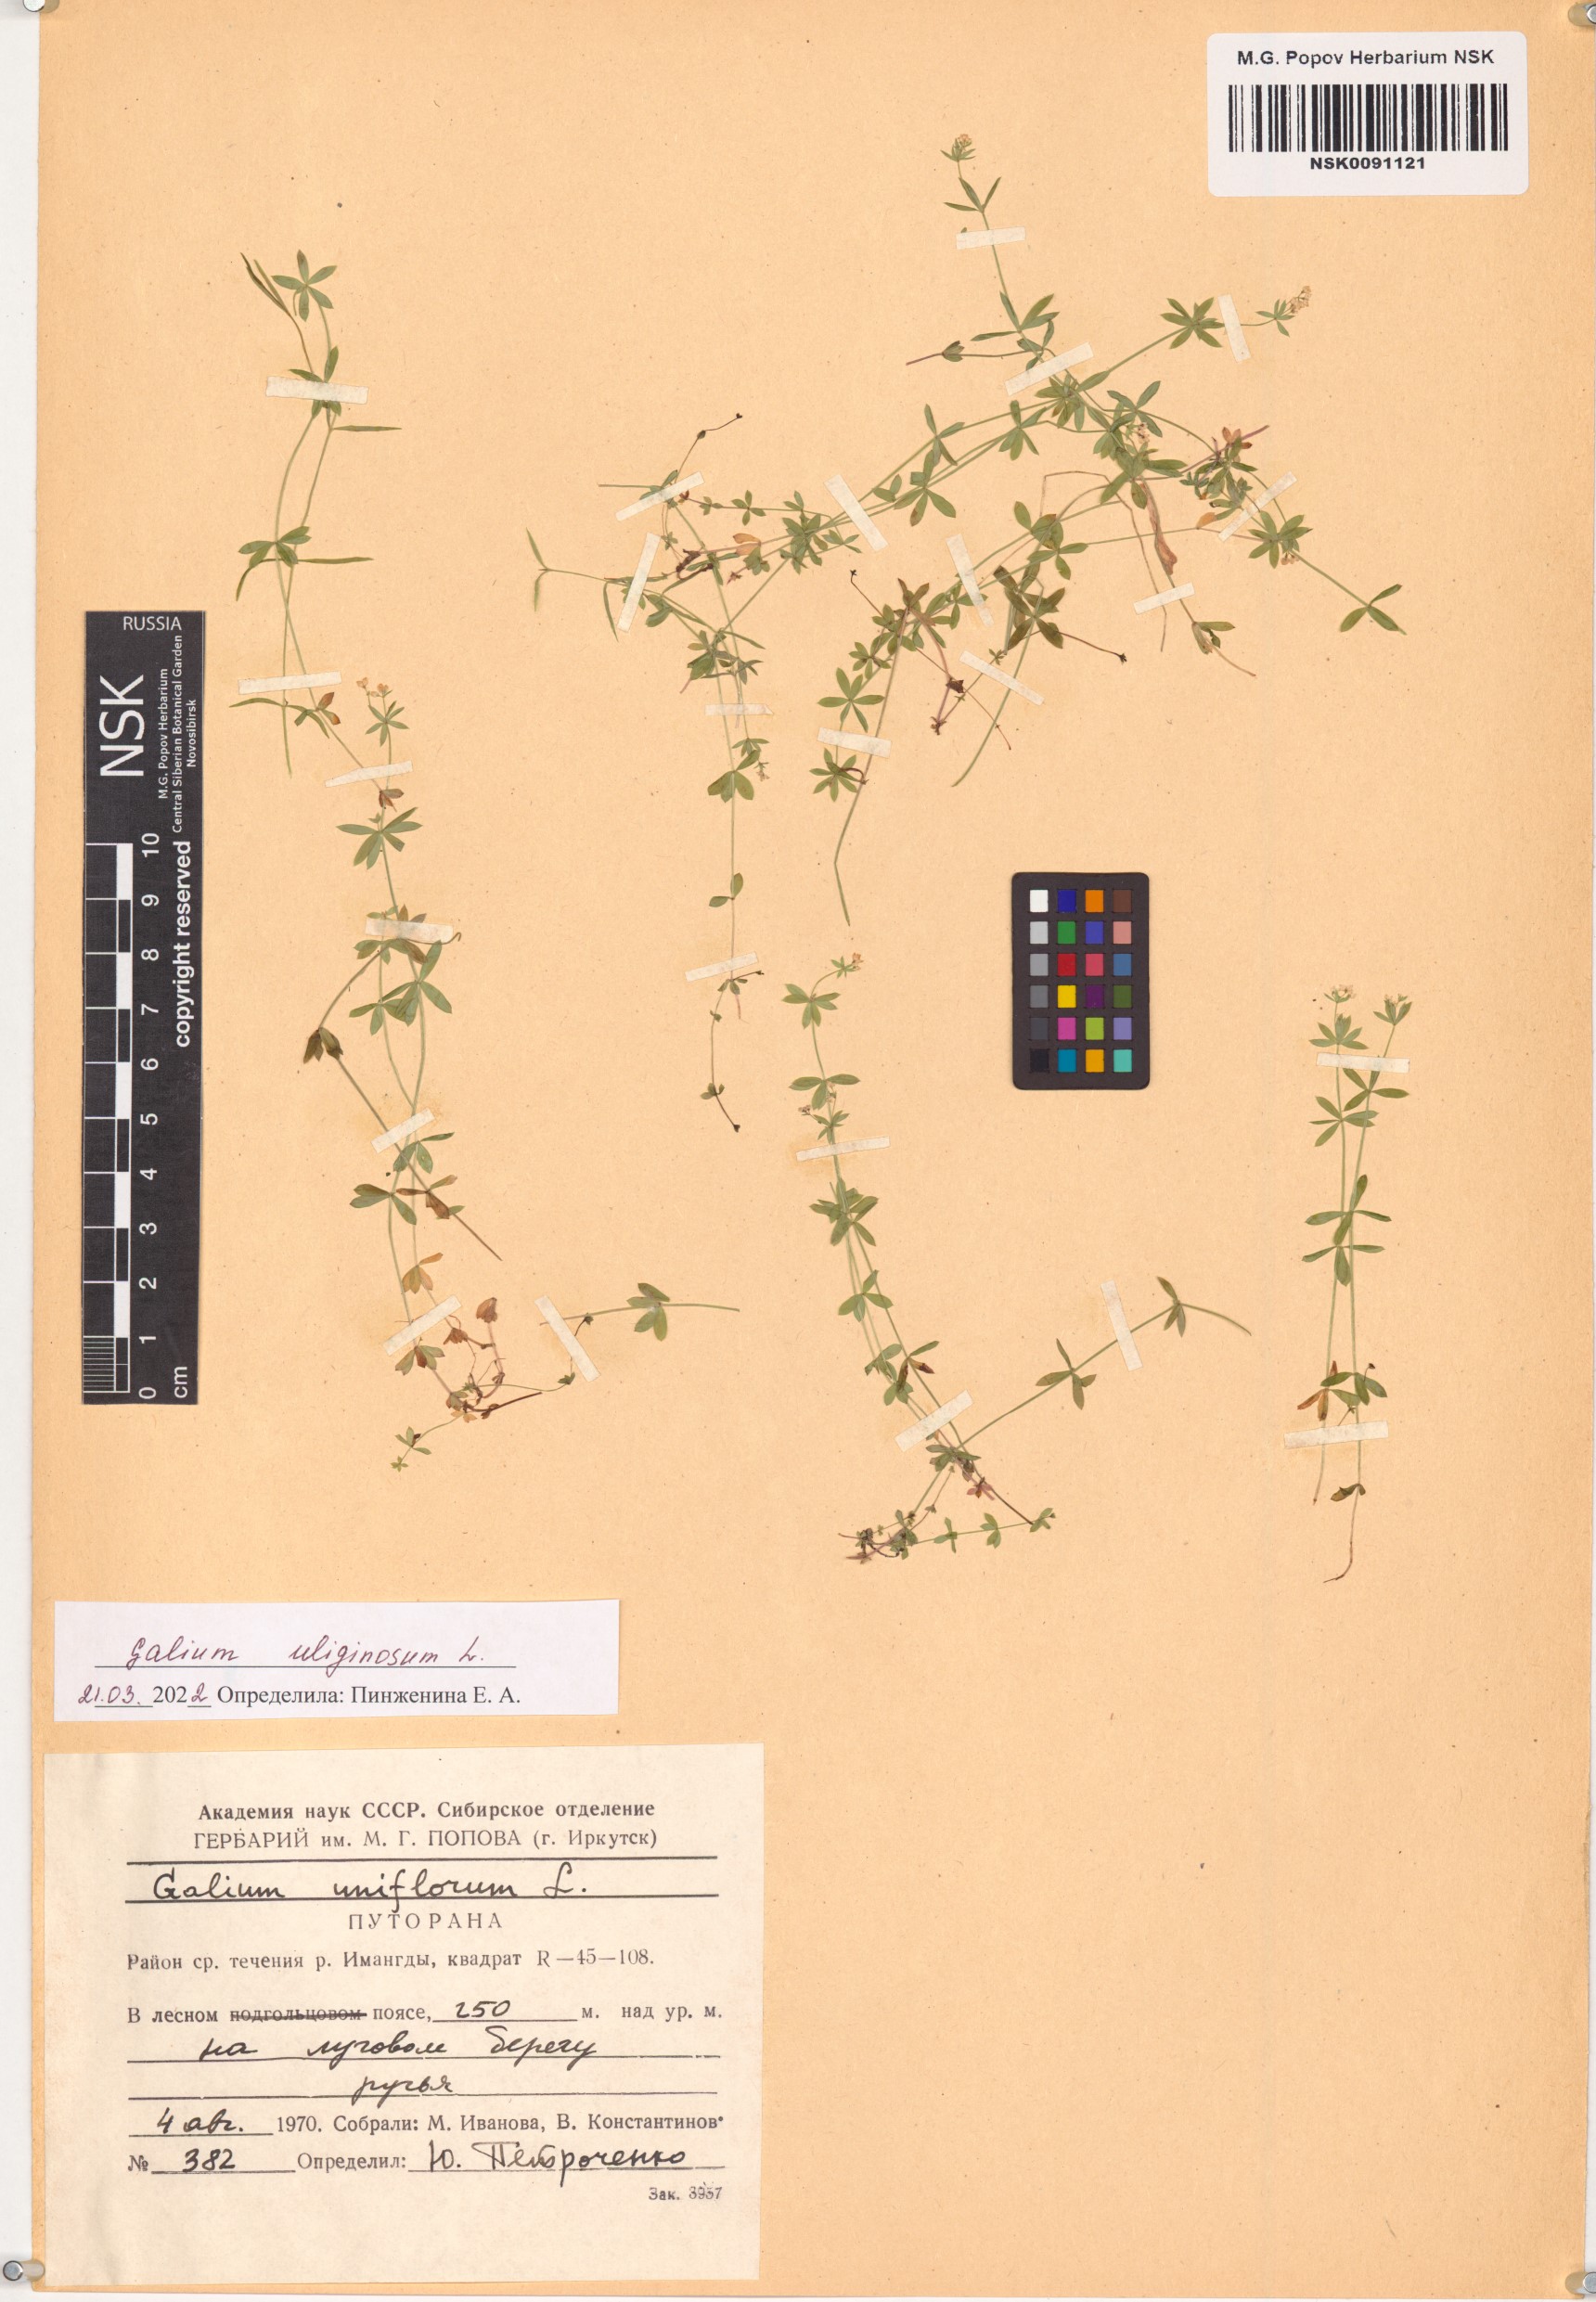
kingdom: Plantae
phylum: Tracheophyta
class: Magnoliopsida
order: Gentianales
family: Rubiaceae
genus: Galium
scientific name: Galium uliginosum
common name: Fen bedstraw
